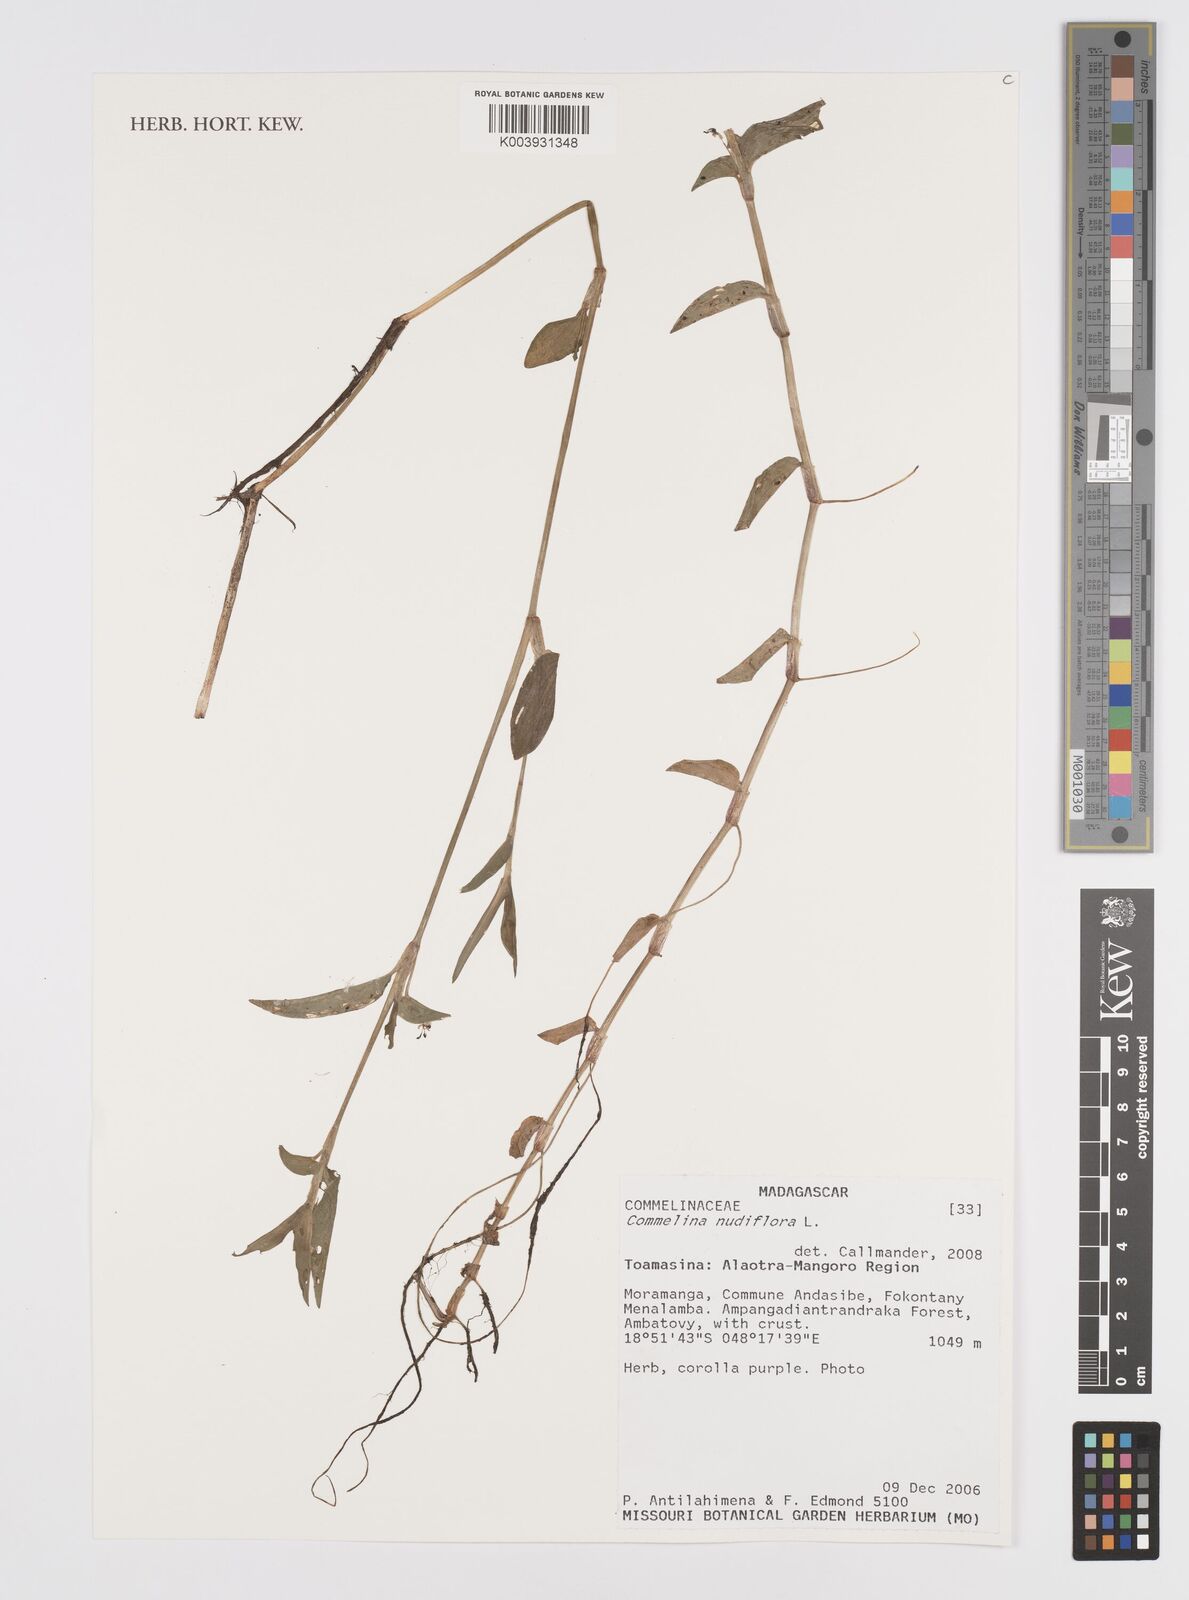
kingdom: Plantae
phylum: Tracheophyta
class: Liliopsida
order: Commelinales
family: Commelinaceae
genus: Murdannia
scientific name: Murdannia nudiflora
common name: Nakedstem dewflower
